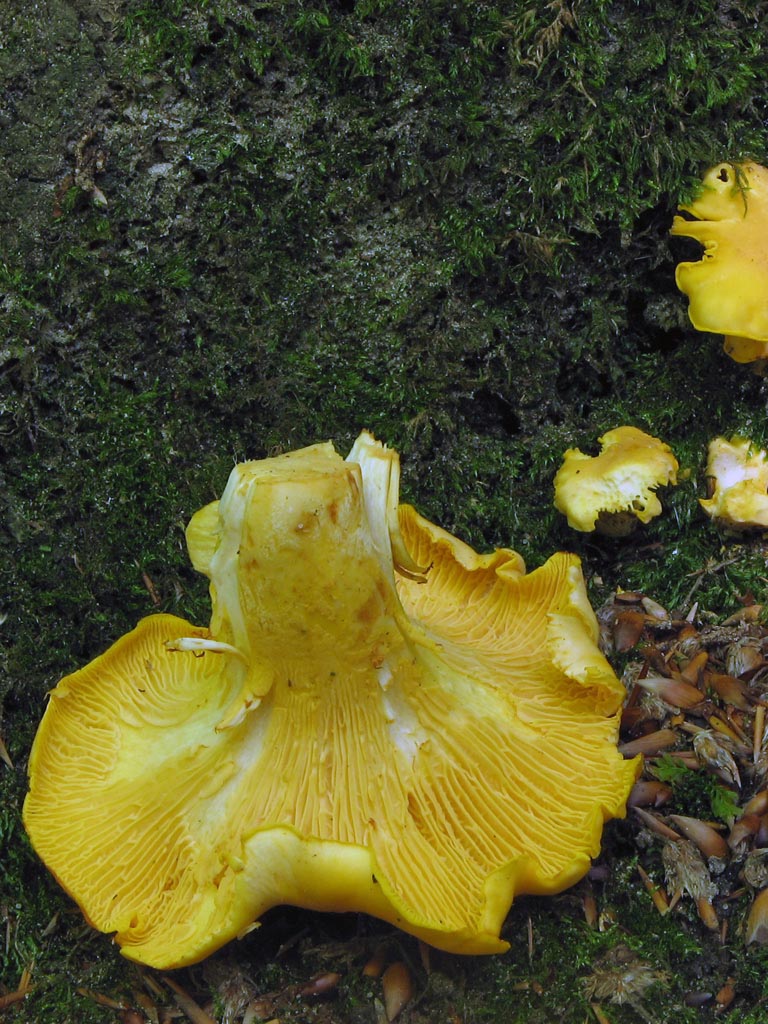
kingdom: Fungi
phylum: Basidiomycota
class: Agaricomycetes
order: Cantharellales
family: Hydnaceae
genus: Cantharellus
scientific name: Cantharellus pallens
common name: bleg kantarel
